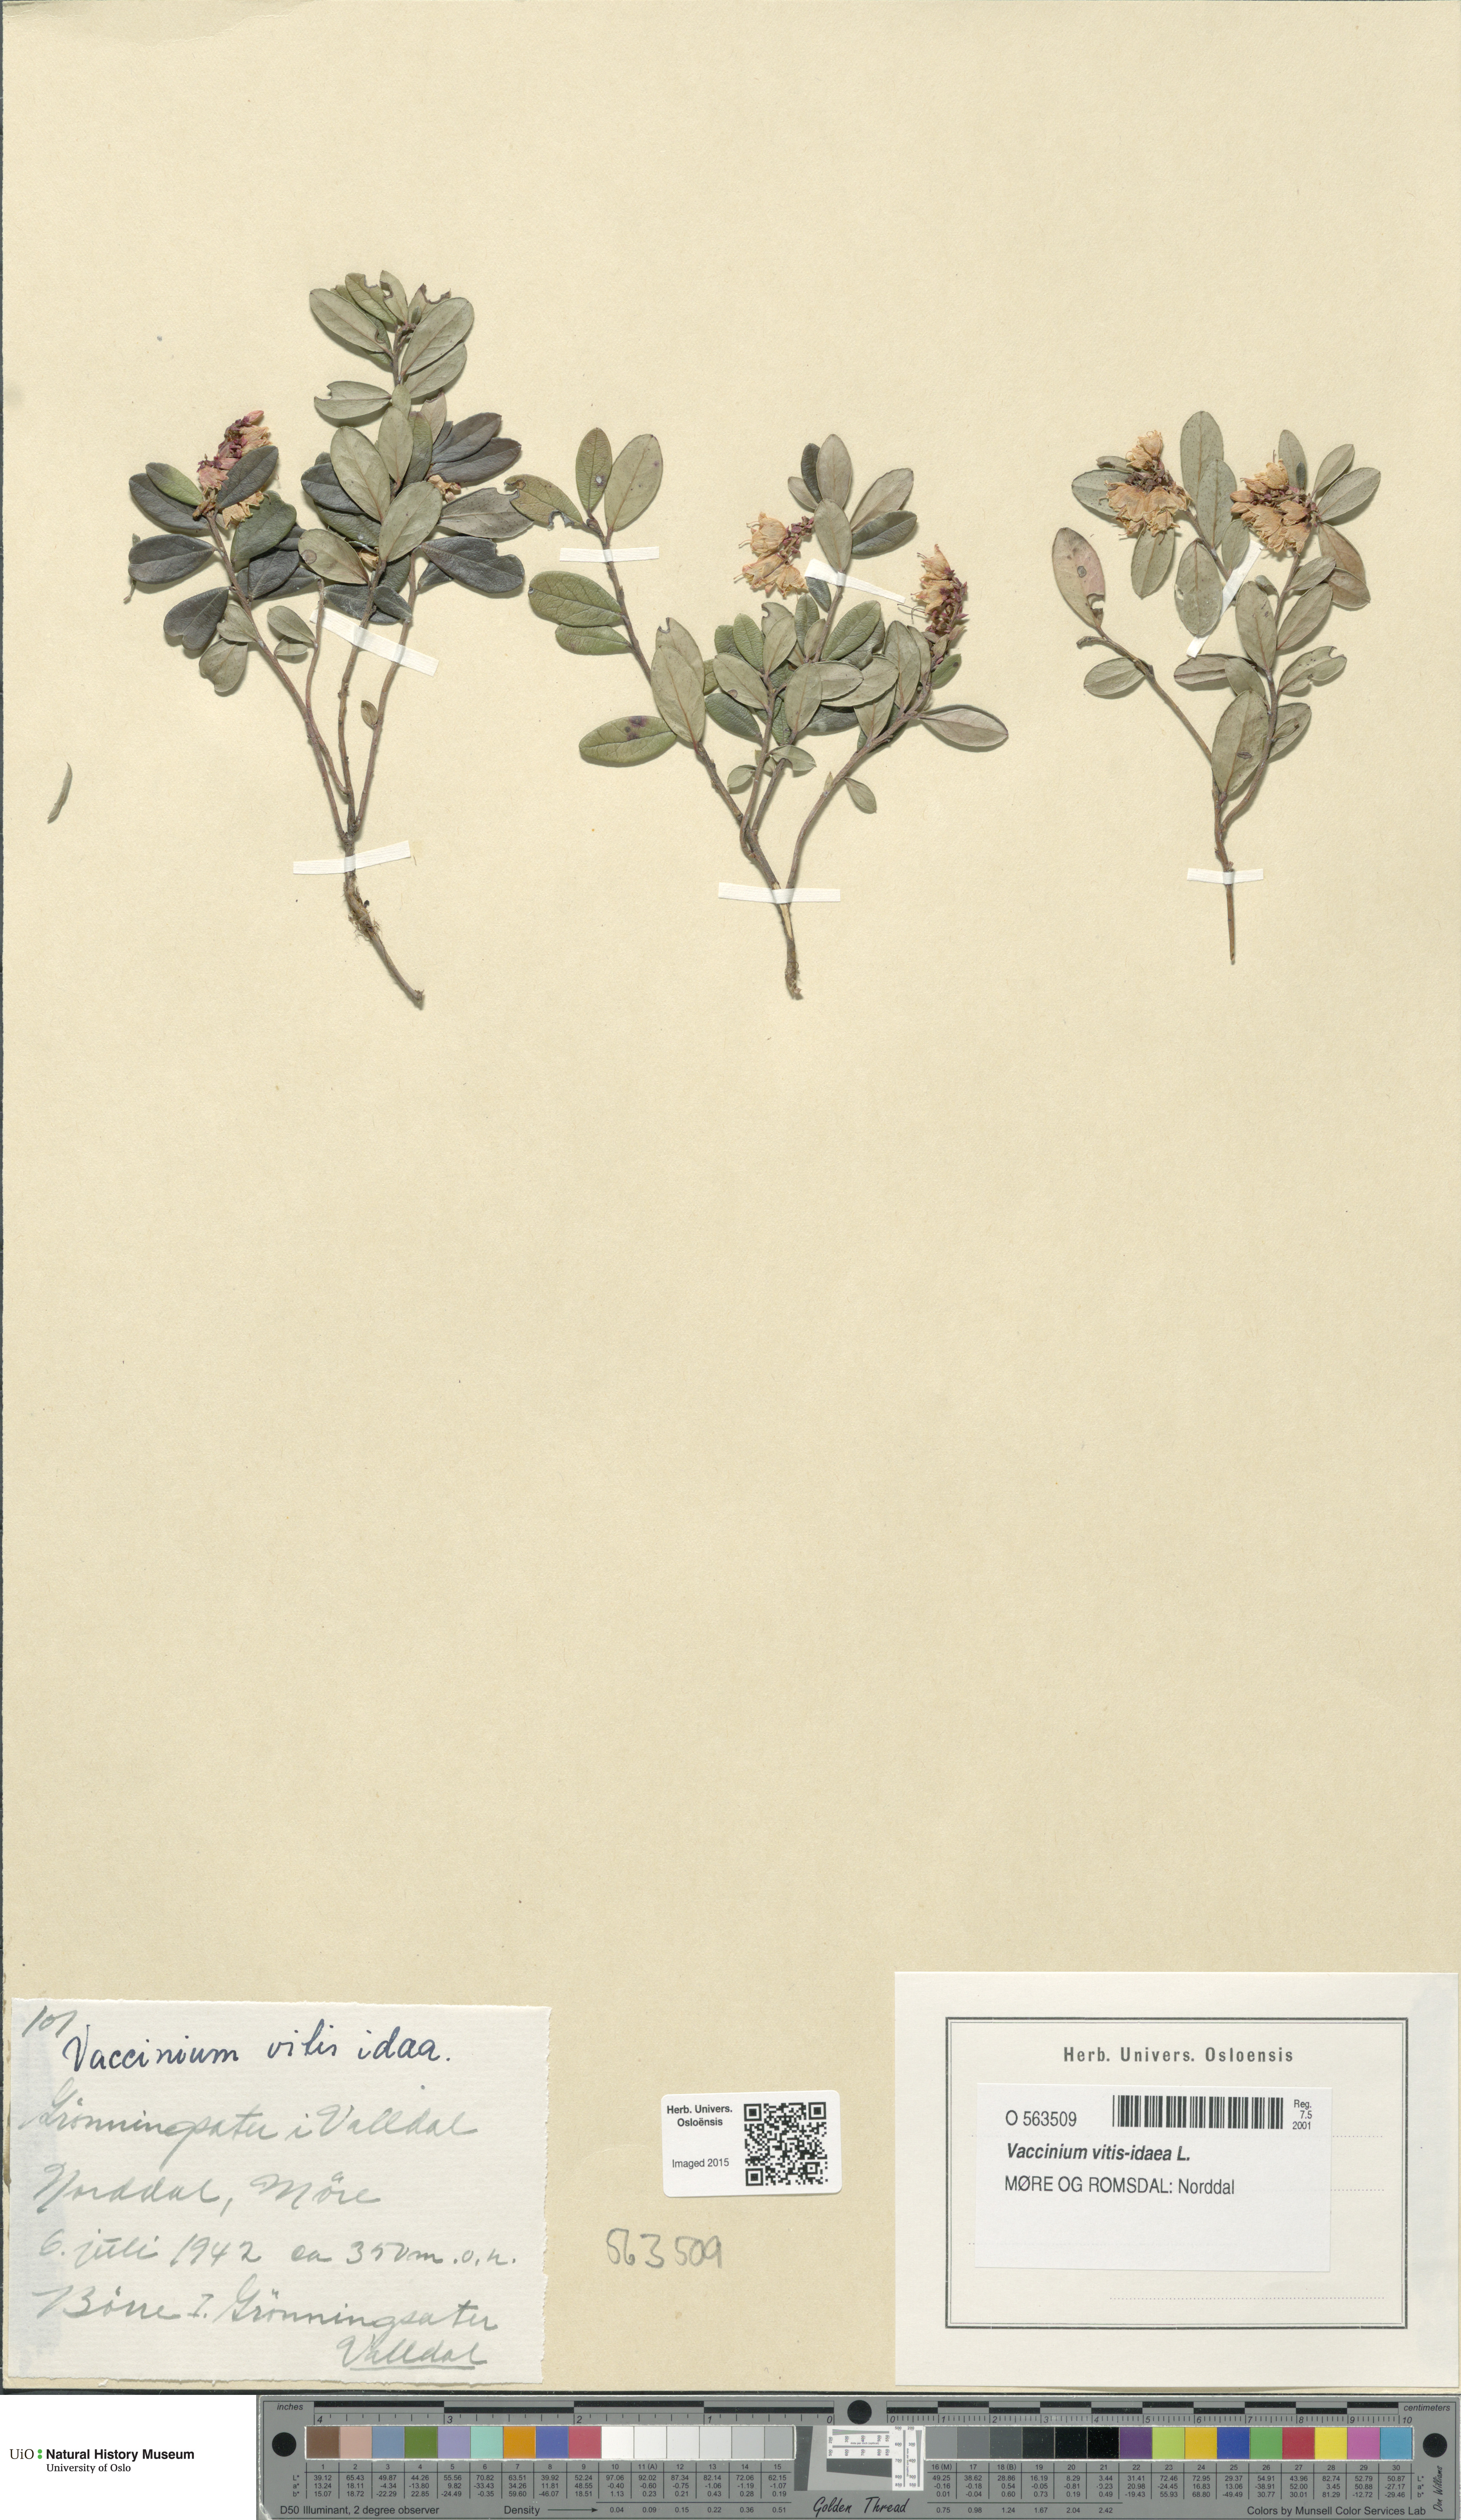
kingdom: Plantae
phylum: Tracheophyta
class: Magnoliopsida
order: Ericales
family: Ericaceae
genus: Vaccinium
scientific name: Vaccinium vitis-idaea
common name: Cowberry
